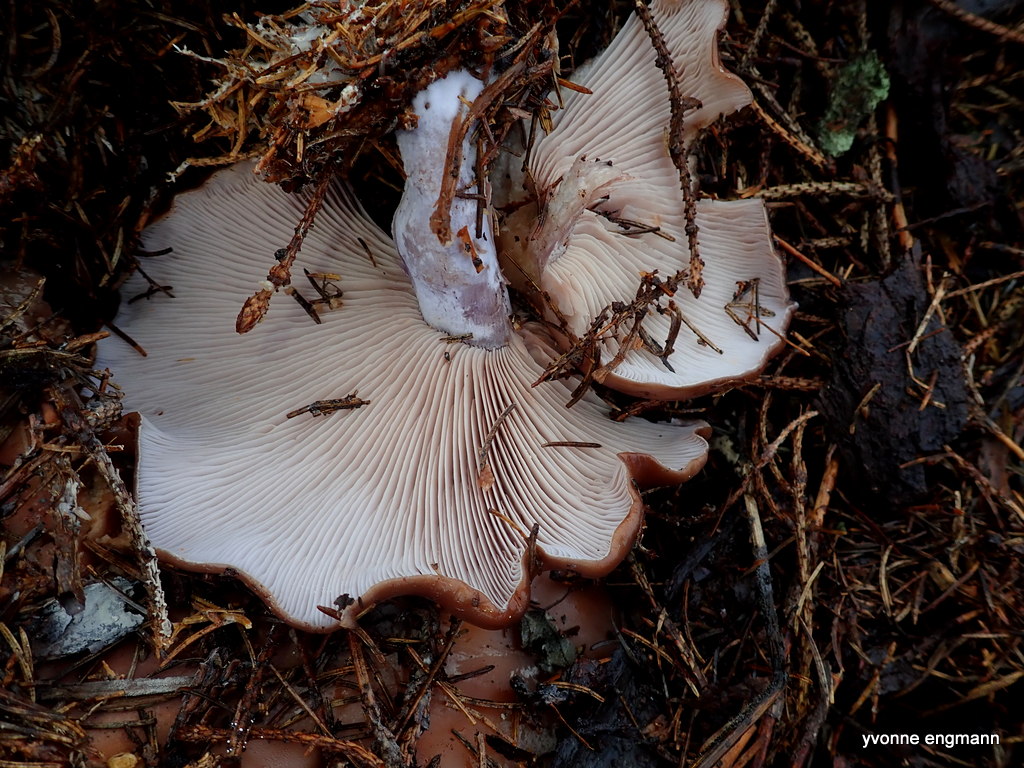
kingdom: Fungi
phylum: Basidiomycota
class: Agaricomycetes
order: Agaricales
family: Tricholomataceae
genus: Lepista
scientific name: Lepista nuda
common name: violet hekseringshat
